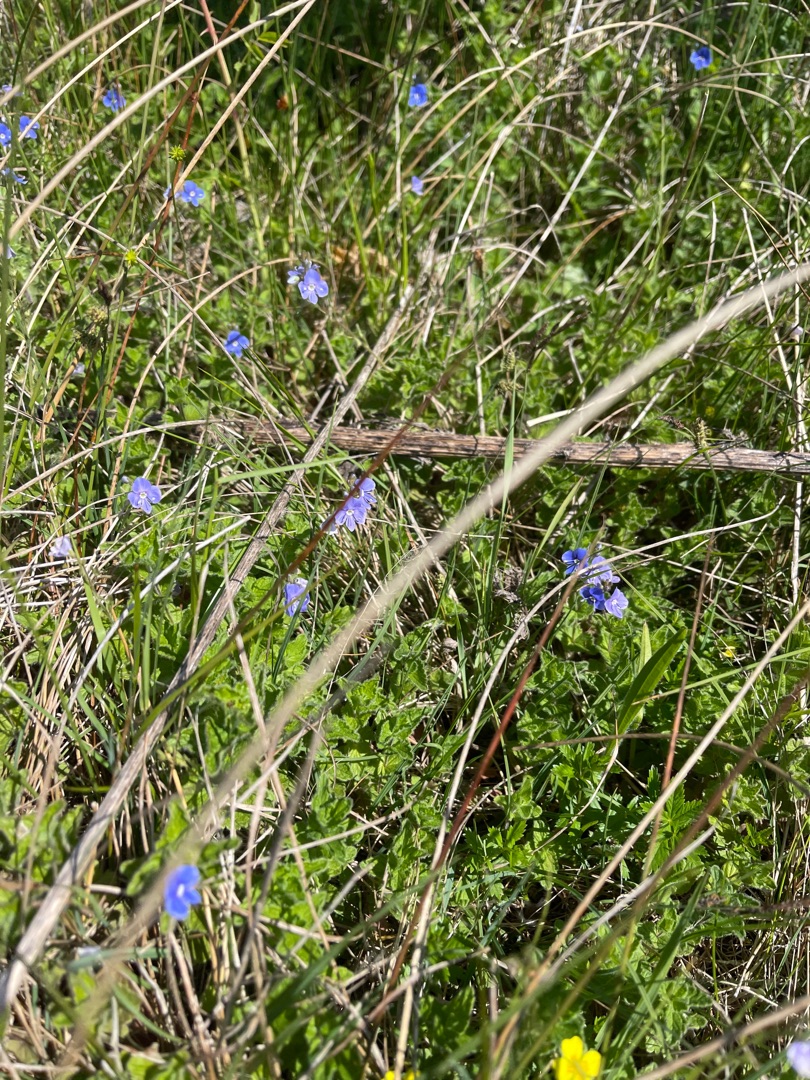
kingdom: Plantae
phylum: Tracheophyta
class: Magnoliopsida
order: Lamiales
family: Plantaginaceae
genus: Veronica
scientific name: Veronica chamaedrys
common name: Tveskægget ærenpris
